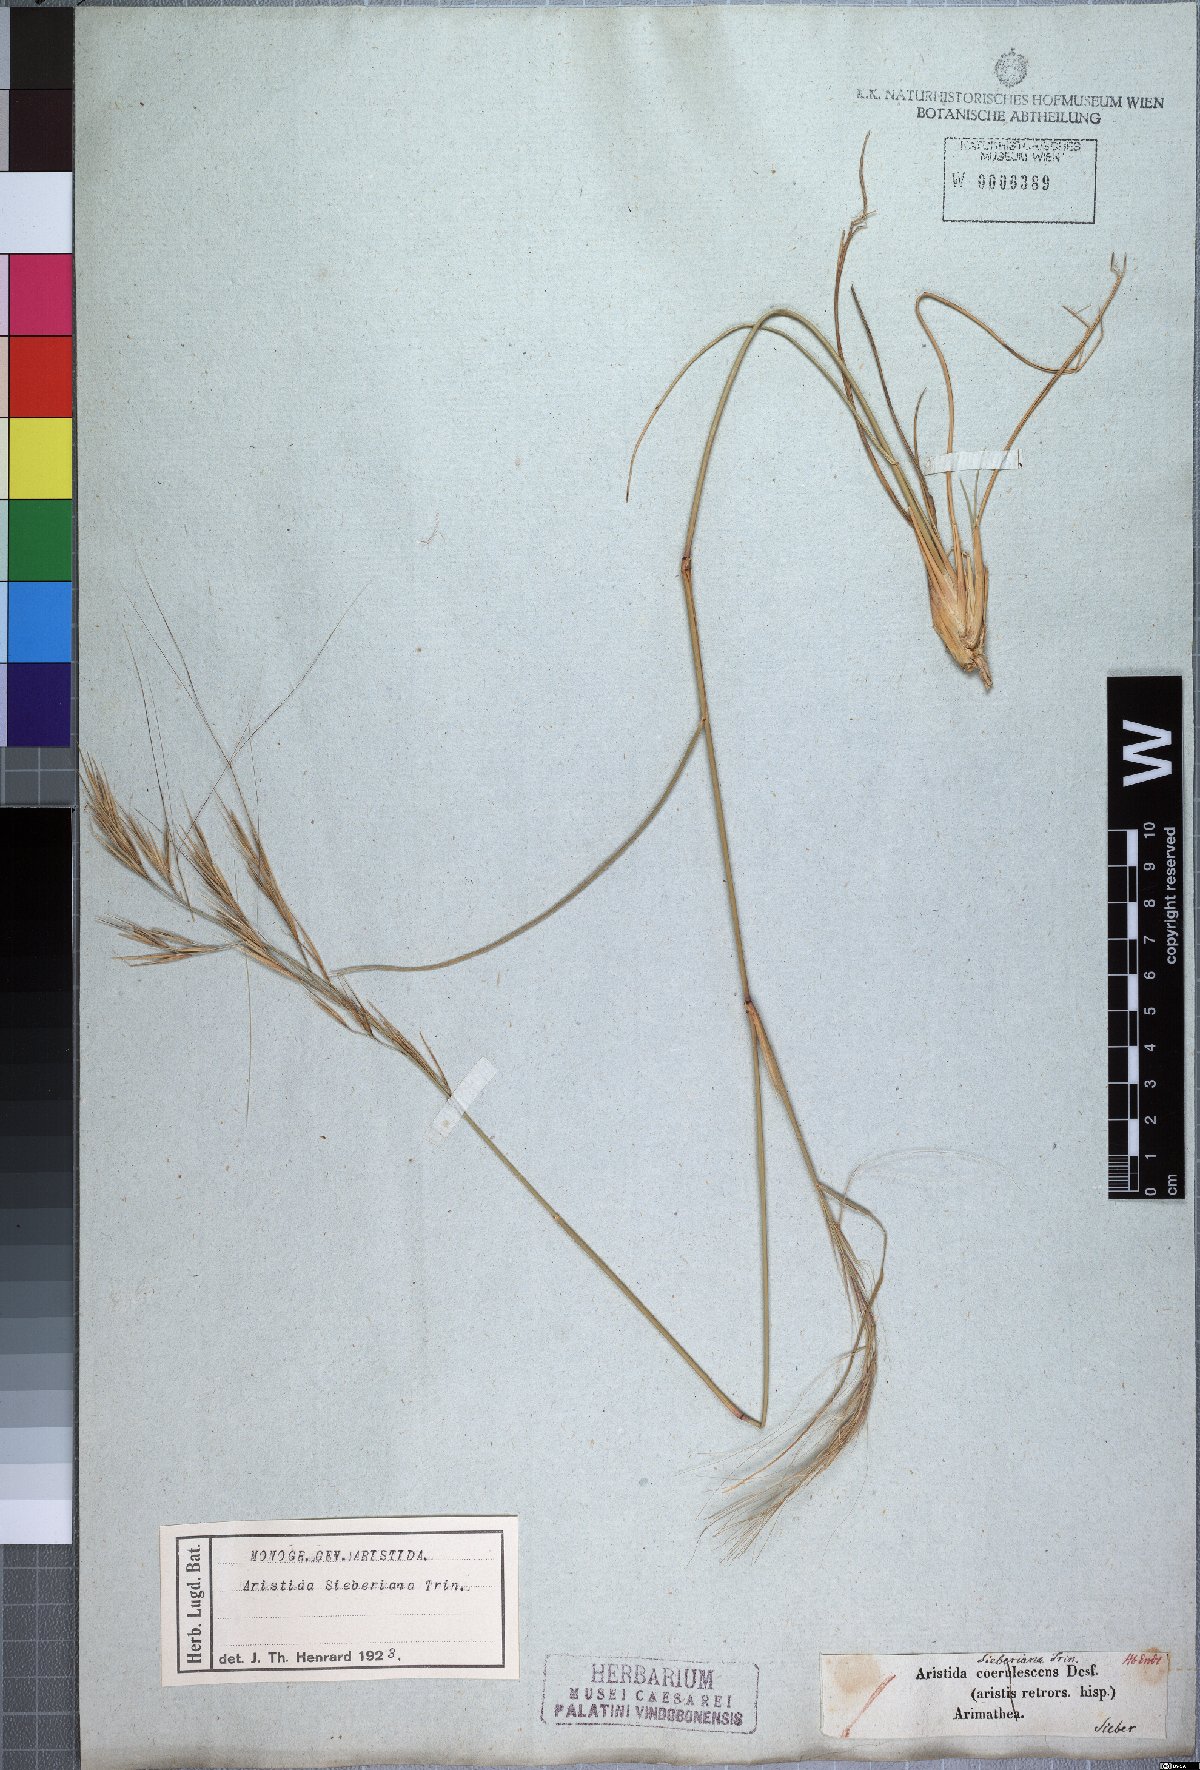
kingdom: Plantae
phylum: Tracheophyta
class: Liliopsida
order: Poales
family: Poaceae
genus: Aristida
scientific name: Aristida sieberiana
